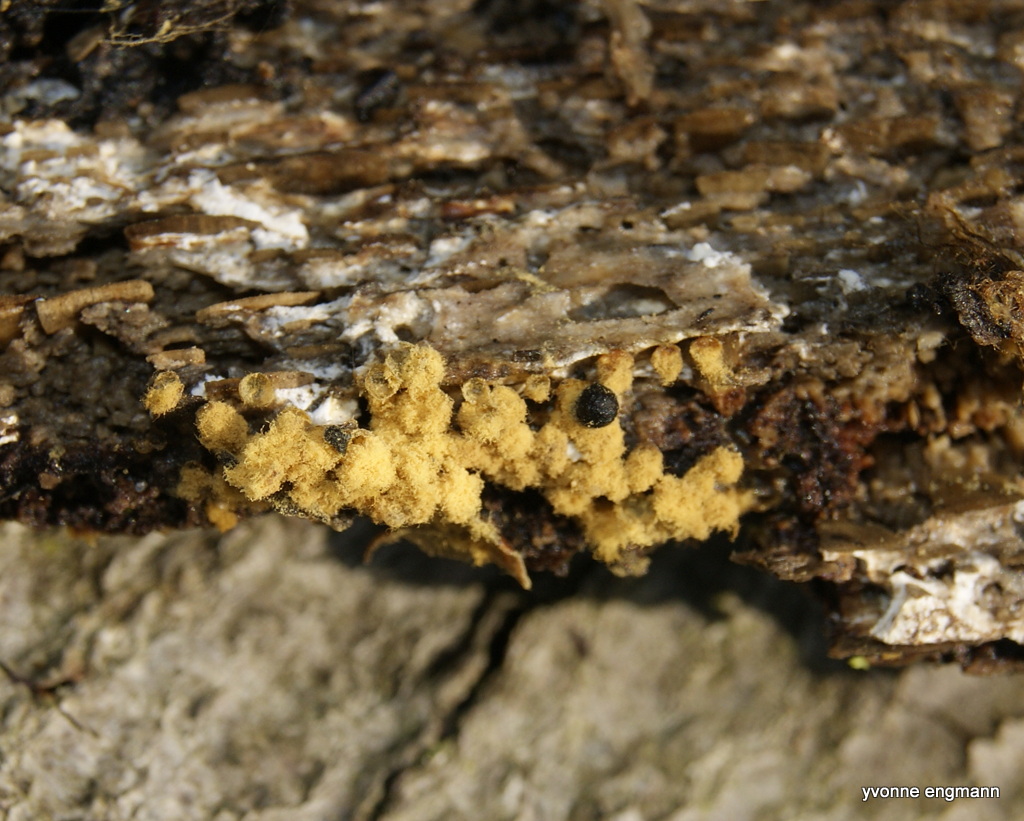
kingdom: Protozoa
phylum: Mycetozoa
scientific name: Mycetozoa
